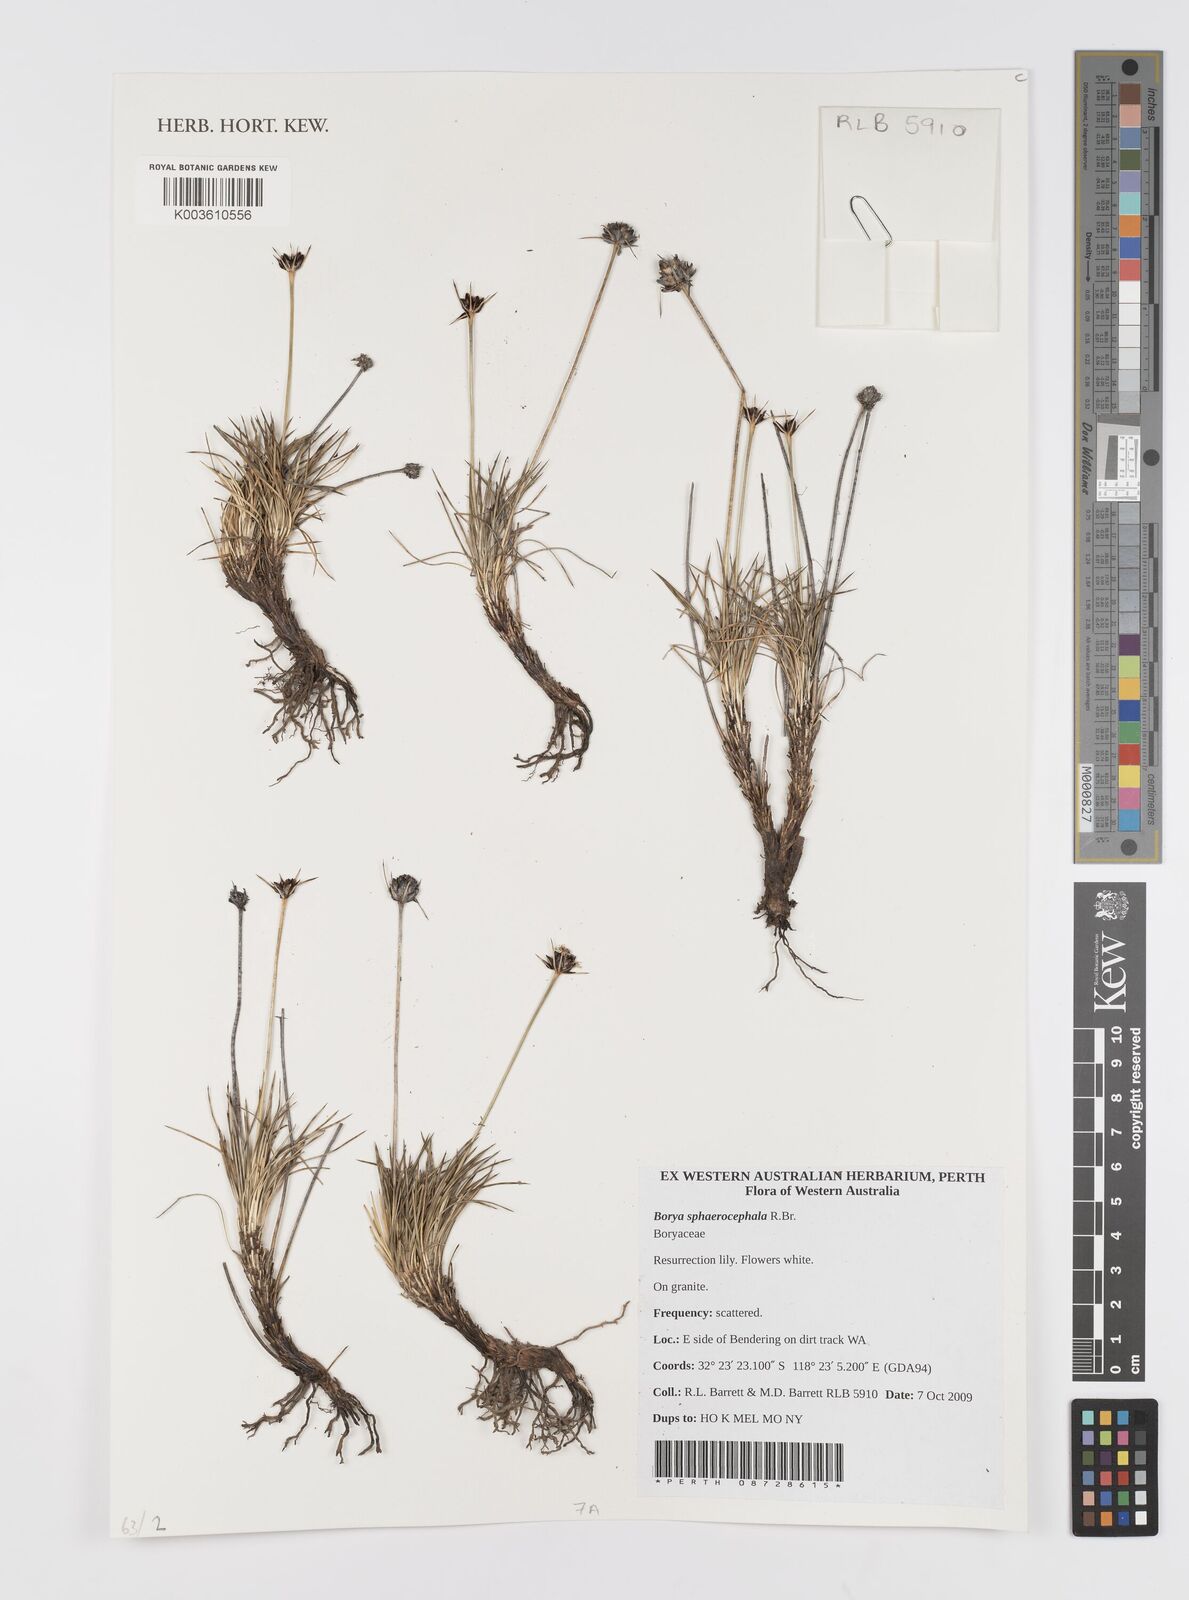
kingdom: Plantae
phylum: Tracheophyta
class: Liliopsida
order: Asparagales
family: Boryaceae
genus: Borya
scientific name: Borya sphaerocephala
